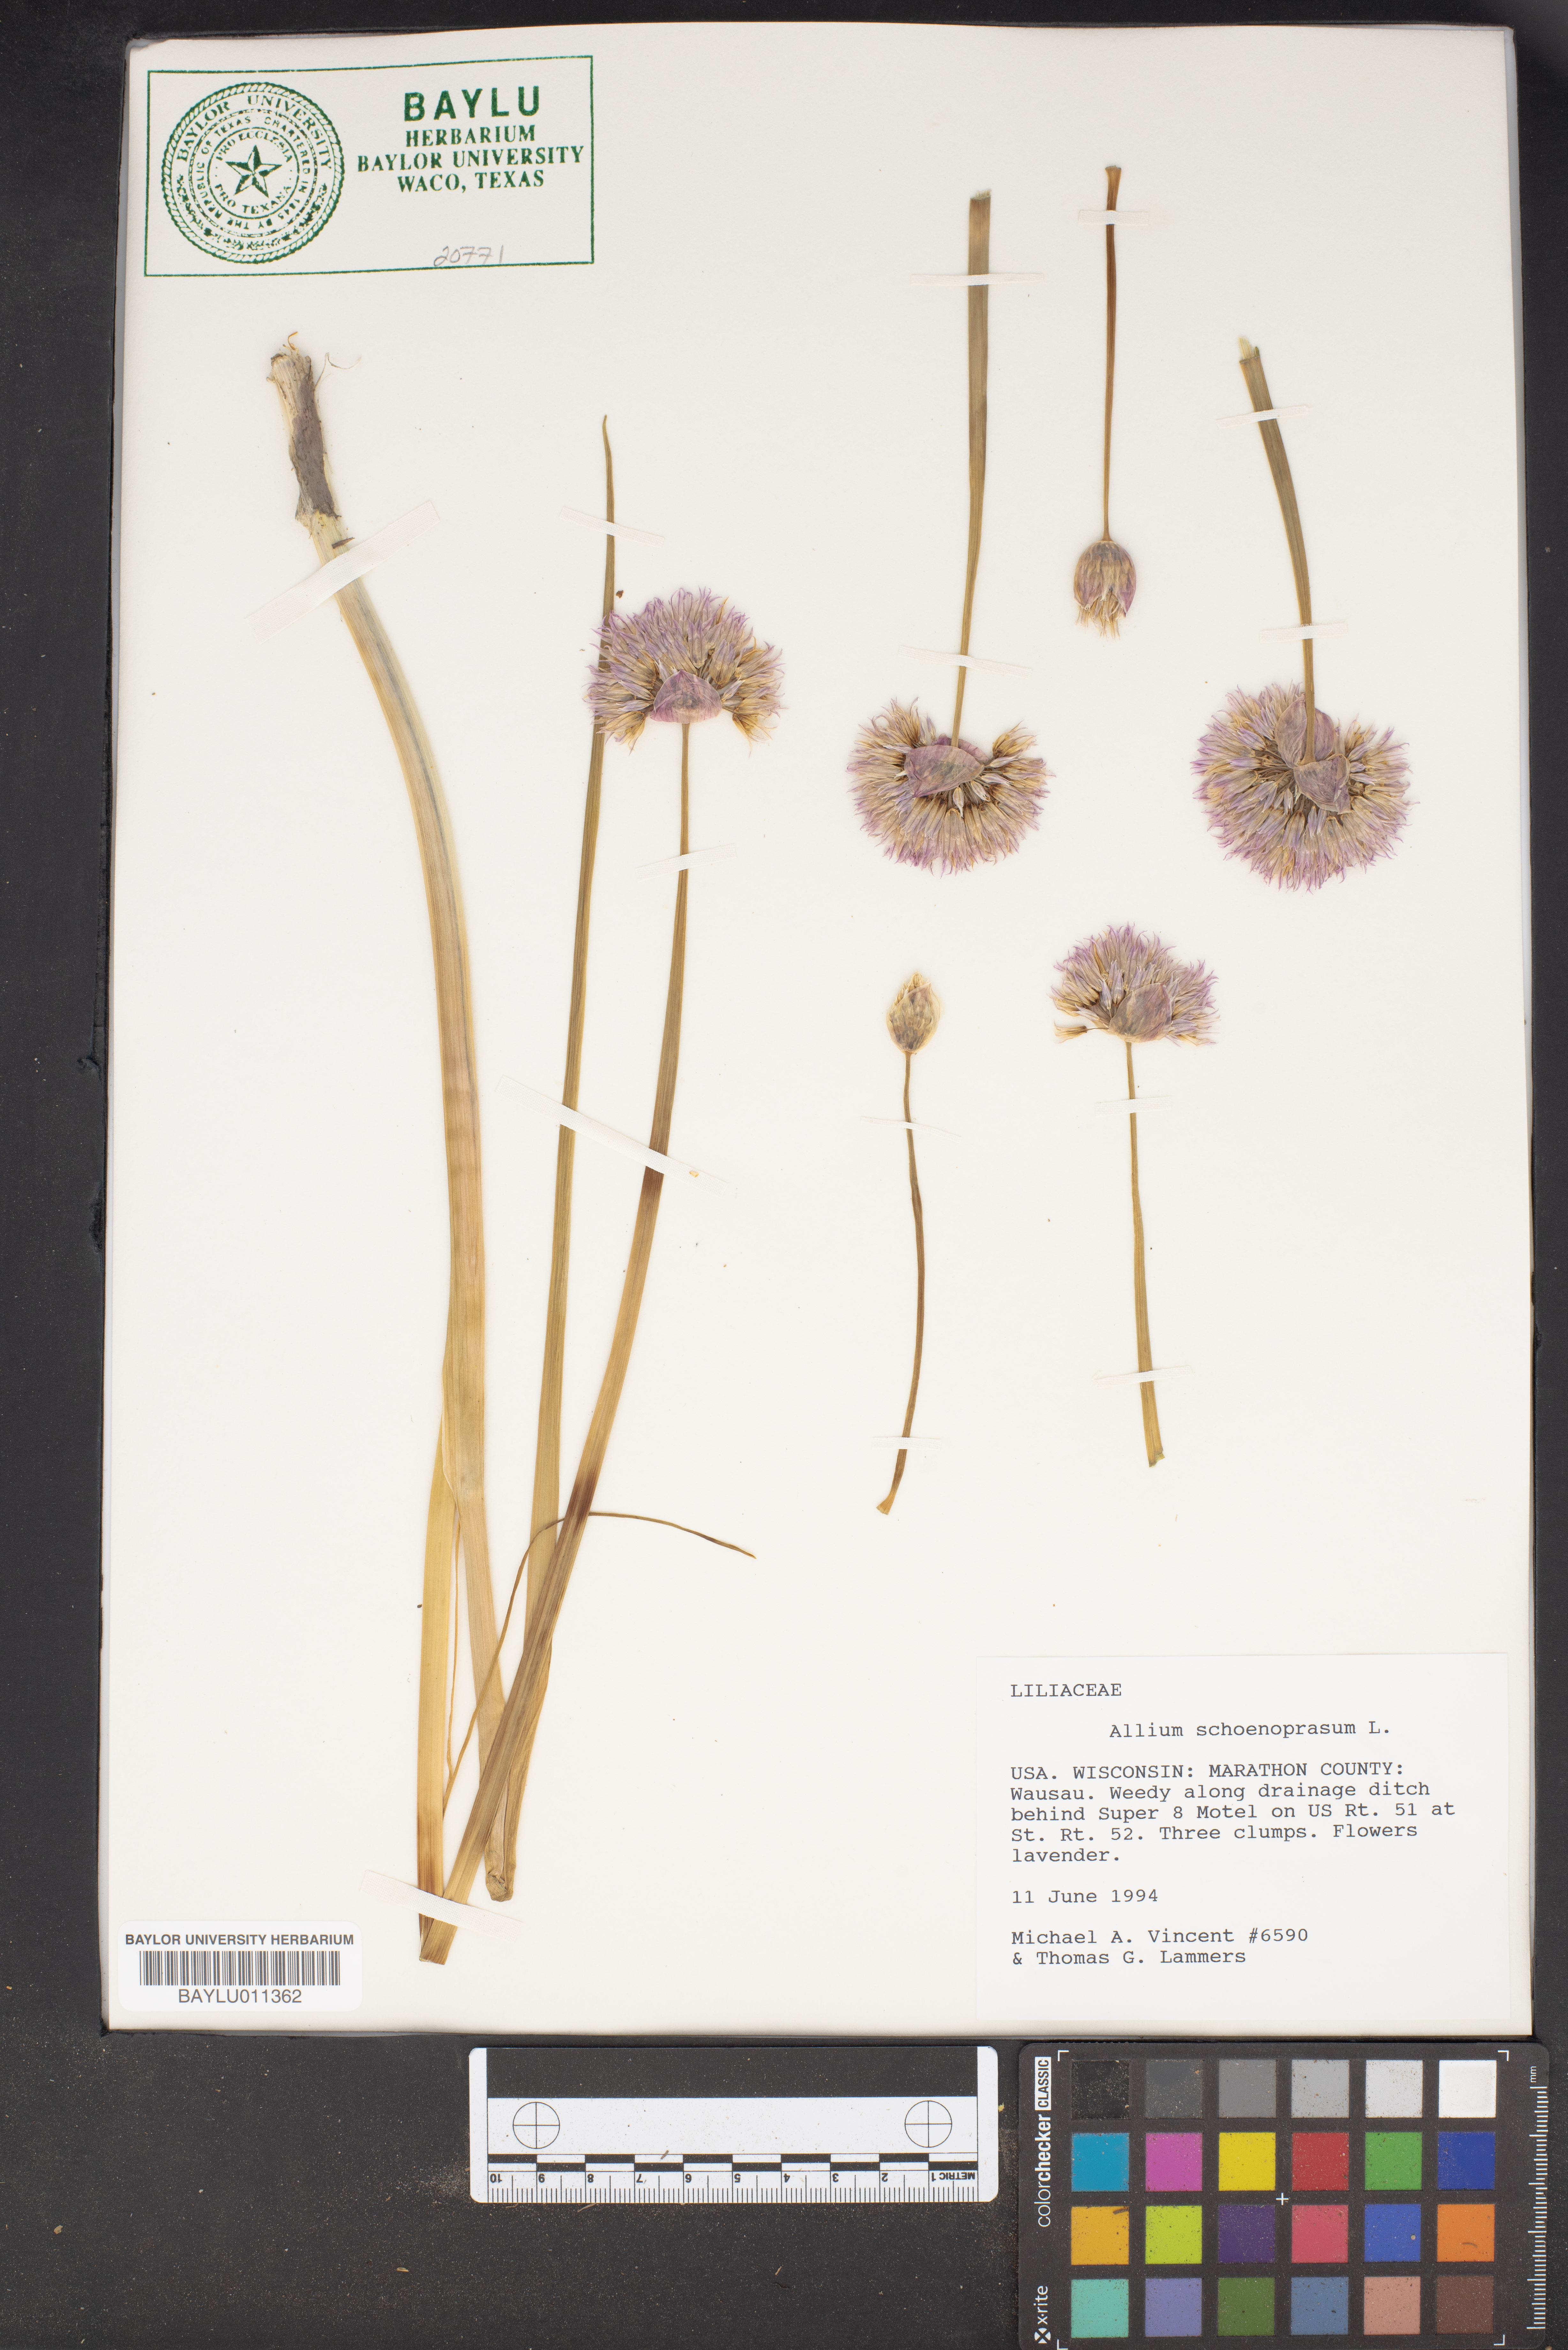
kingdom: Plantae
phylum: Tracheophyta
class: Liliopsida
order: Asparagales
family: Amaryllidaceae
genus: Allium
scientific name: Allium schoenoprasum
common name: Chives
